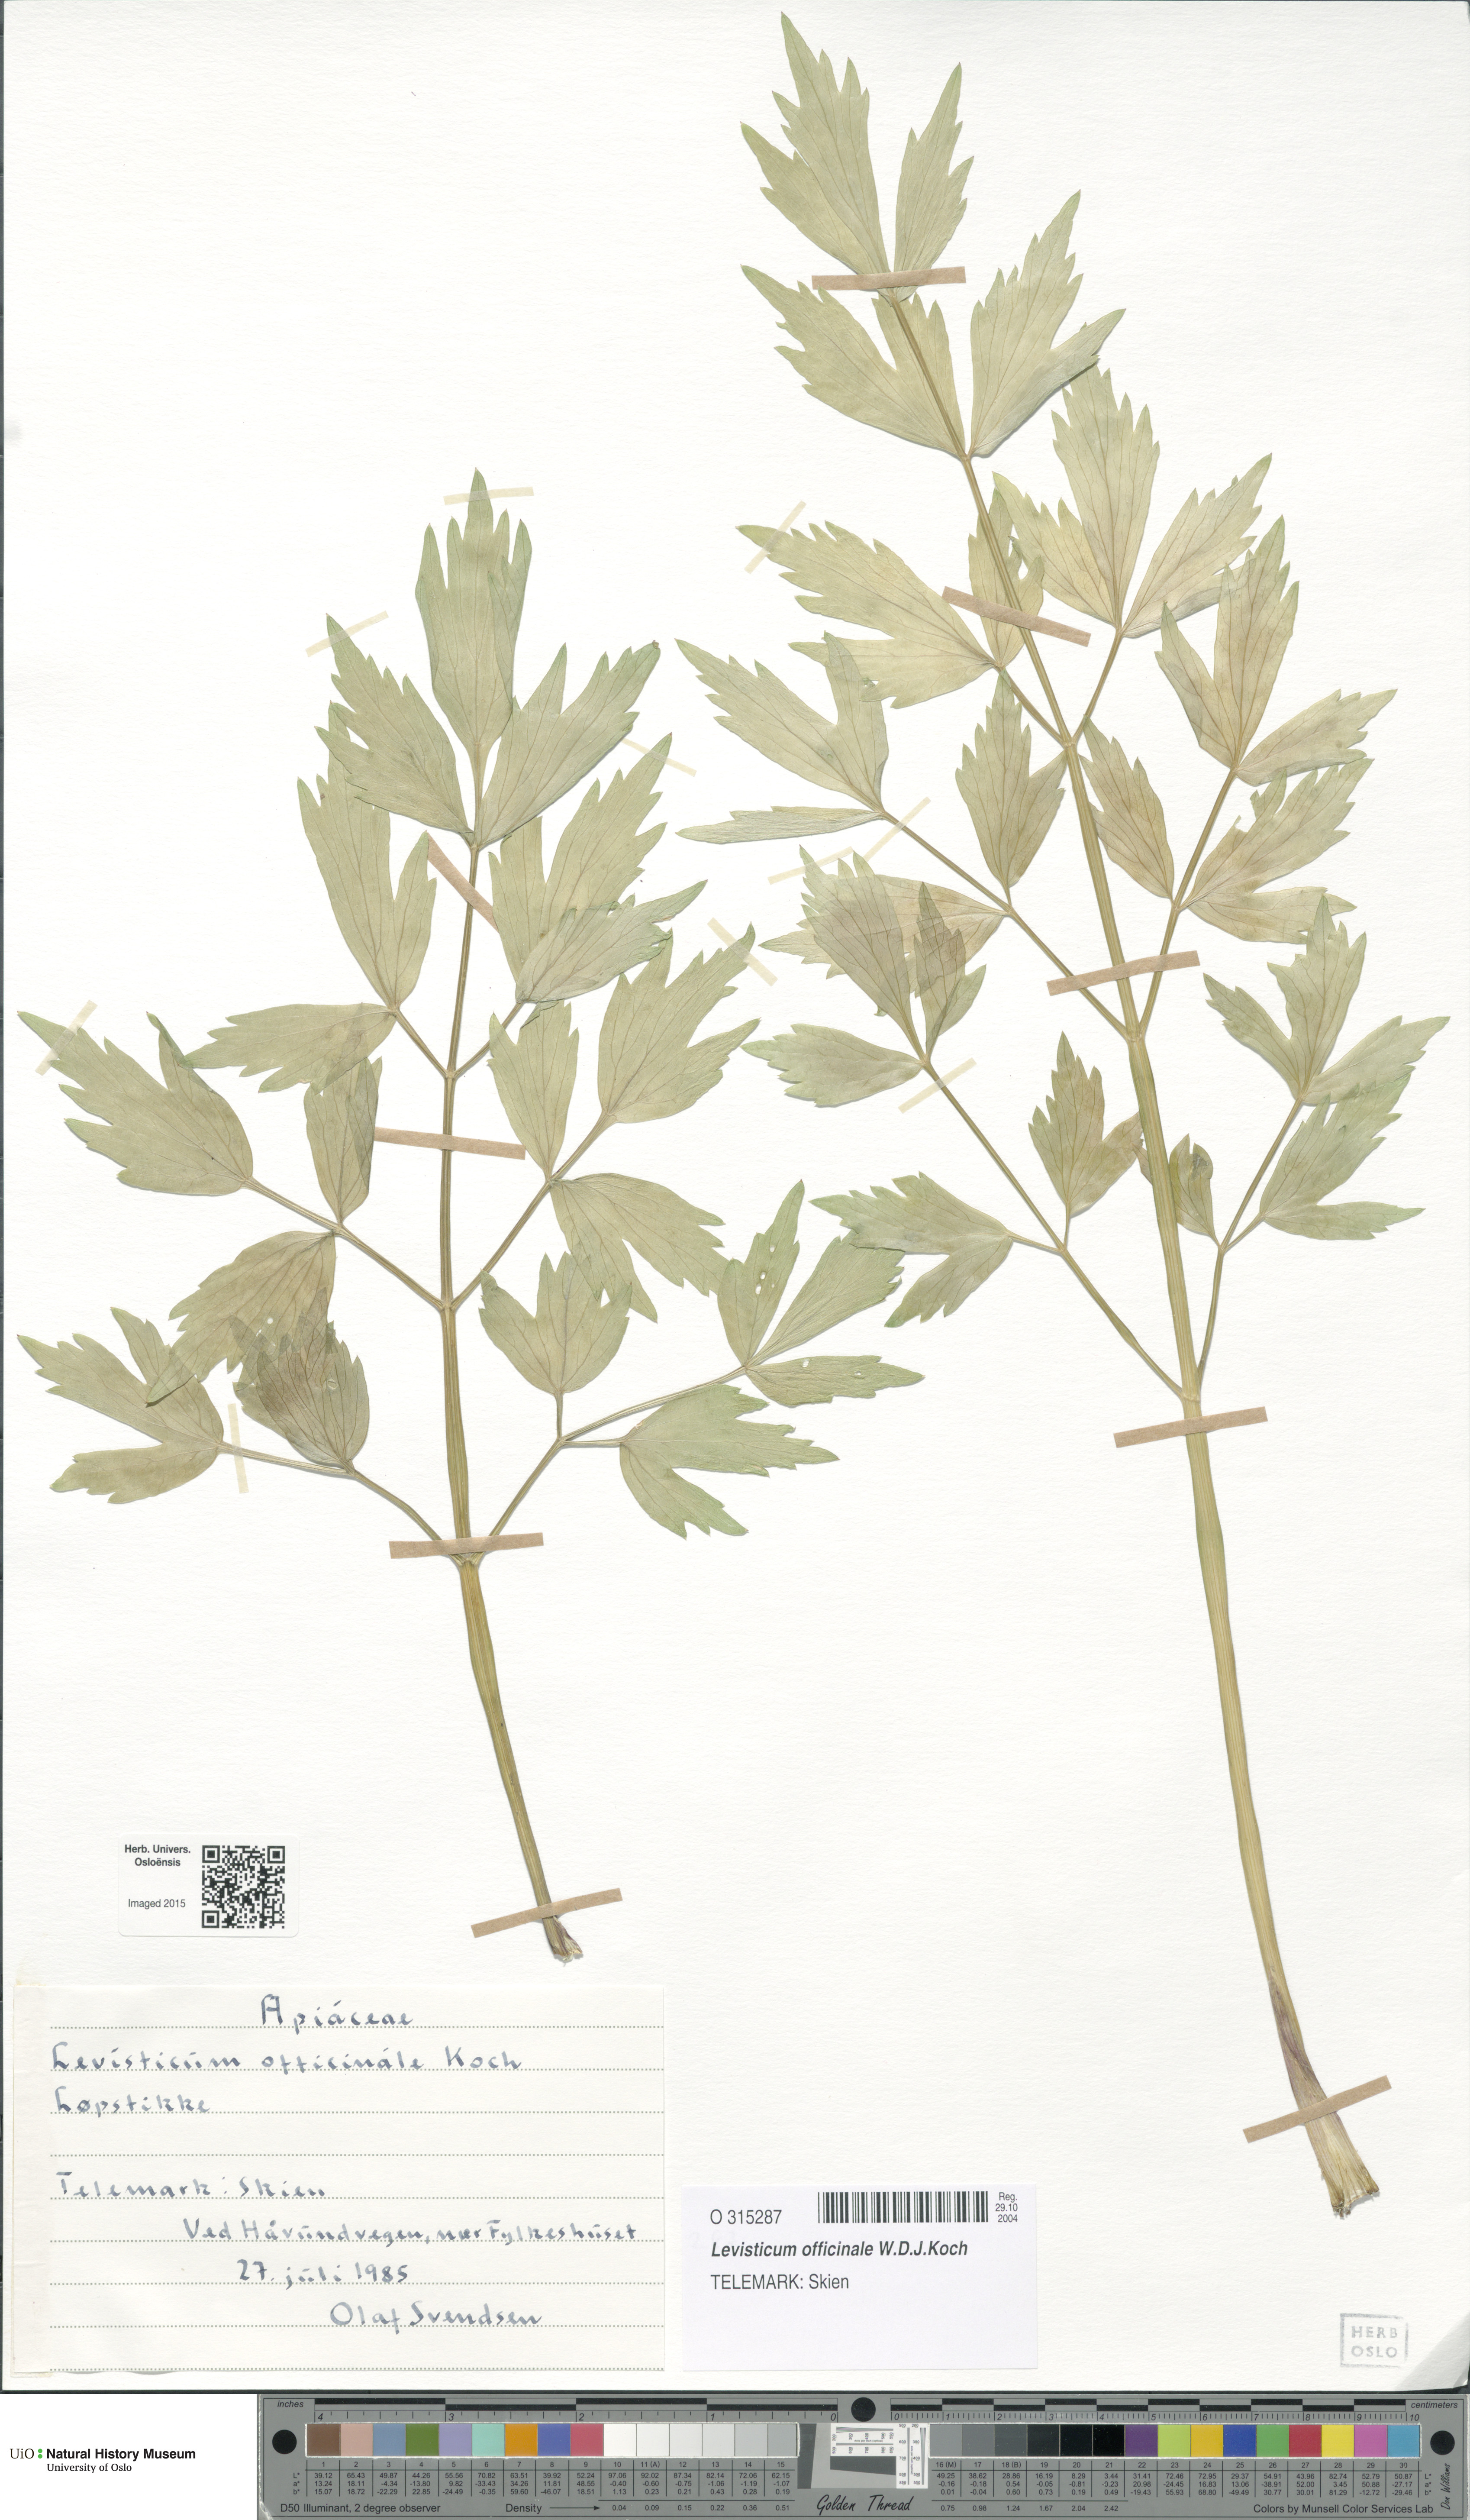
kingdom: Plantae
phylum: Tracheophyta
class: Magnoliopsida
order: Apiales
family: Apiaceae
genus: Levisticum
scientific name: Levisticum officinale
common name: Lovage
